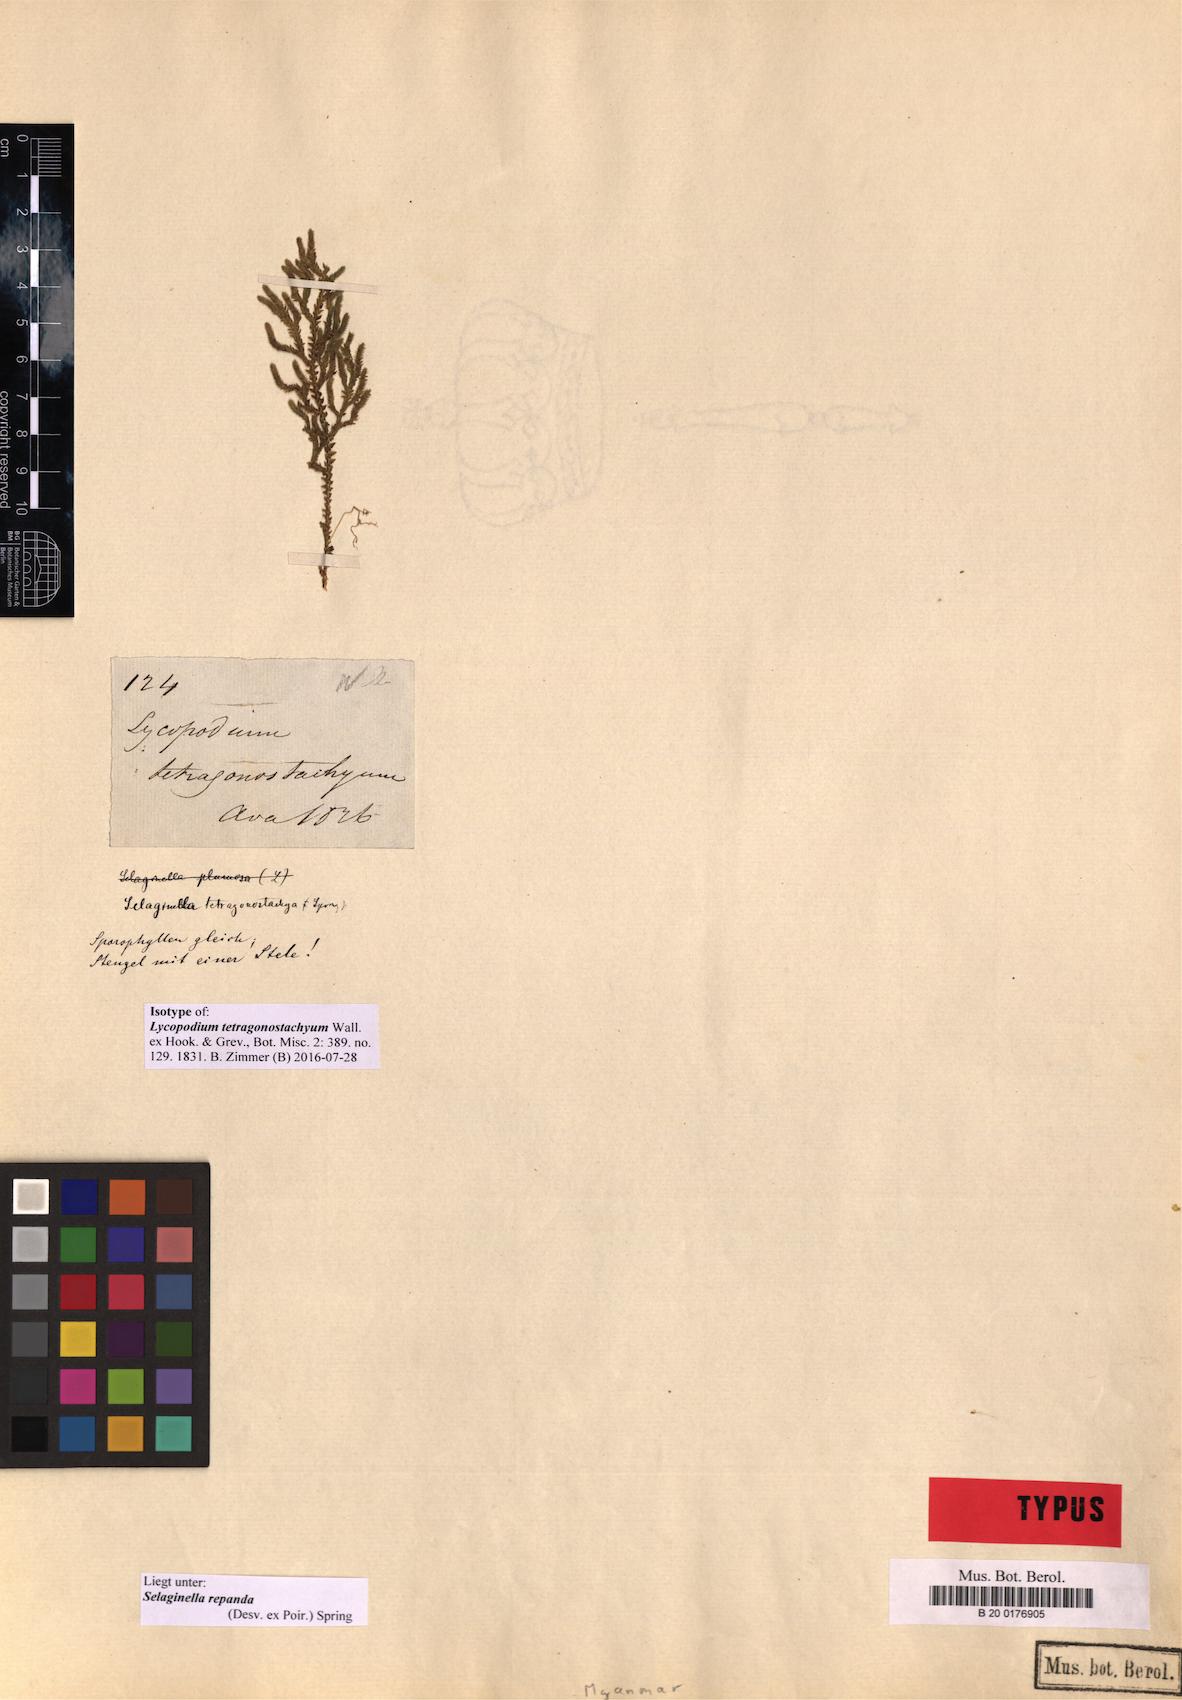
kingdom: Plantae
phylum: Tracheophyta
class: Lycopodiopsida
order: Selaginellales
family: Selaginellaceae
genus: Selaginella
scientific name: Selaginella repanda
